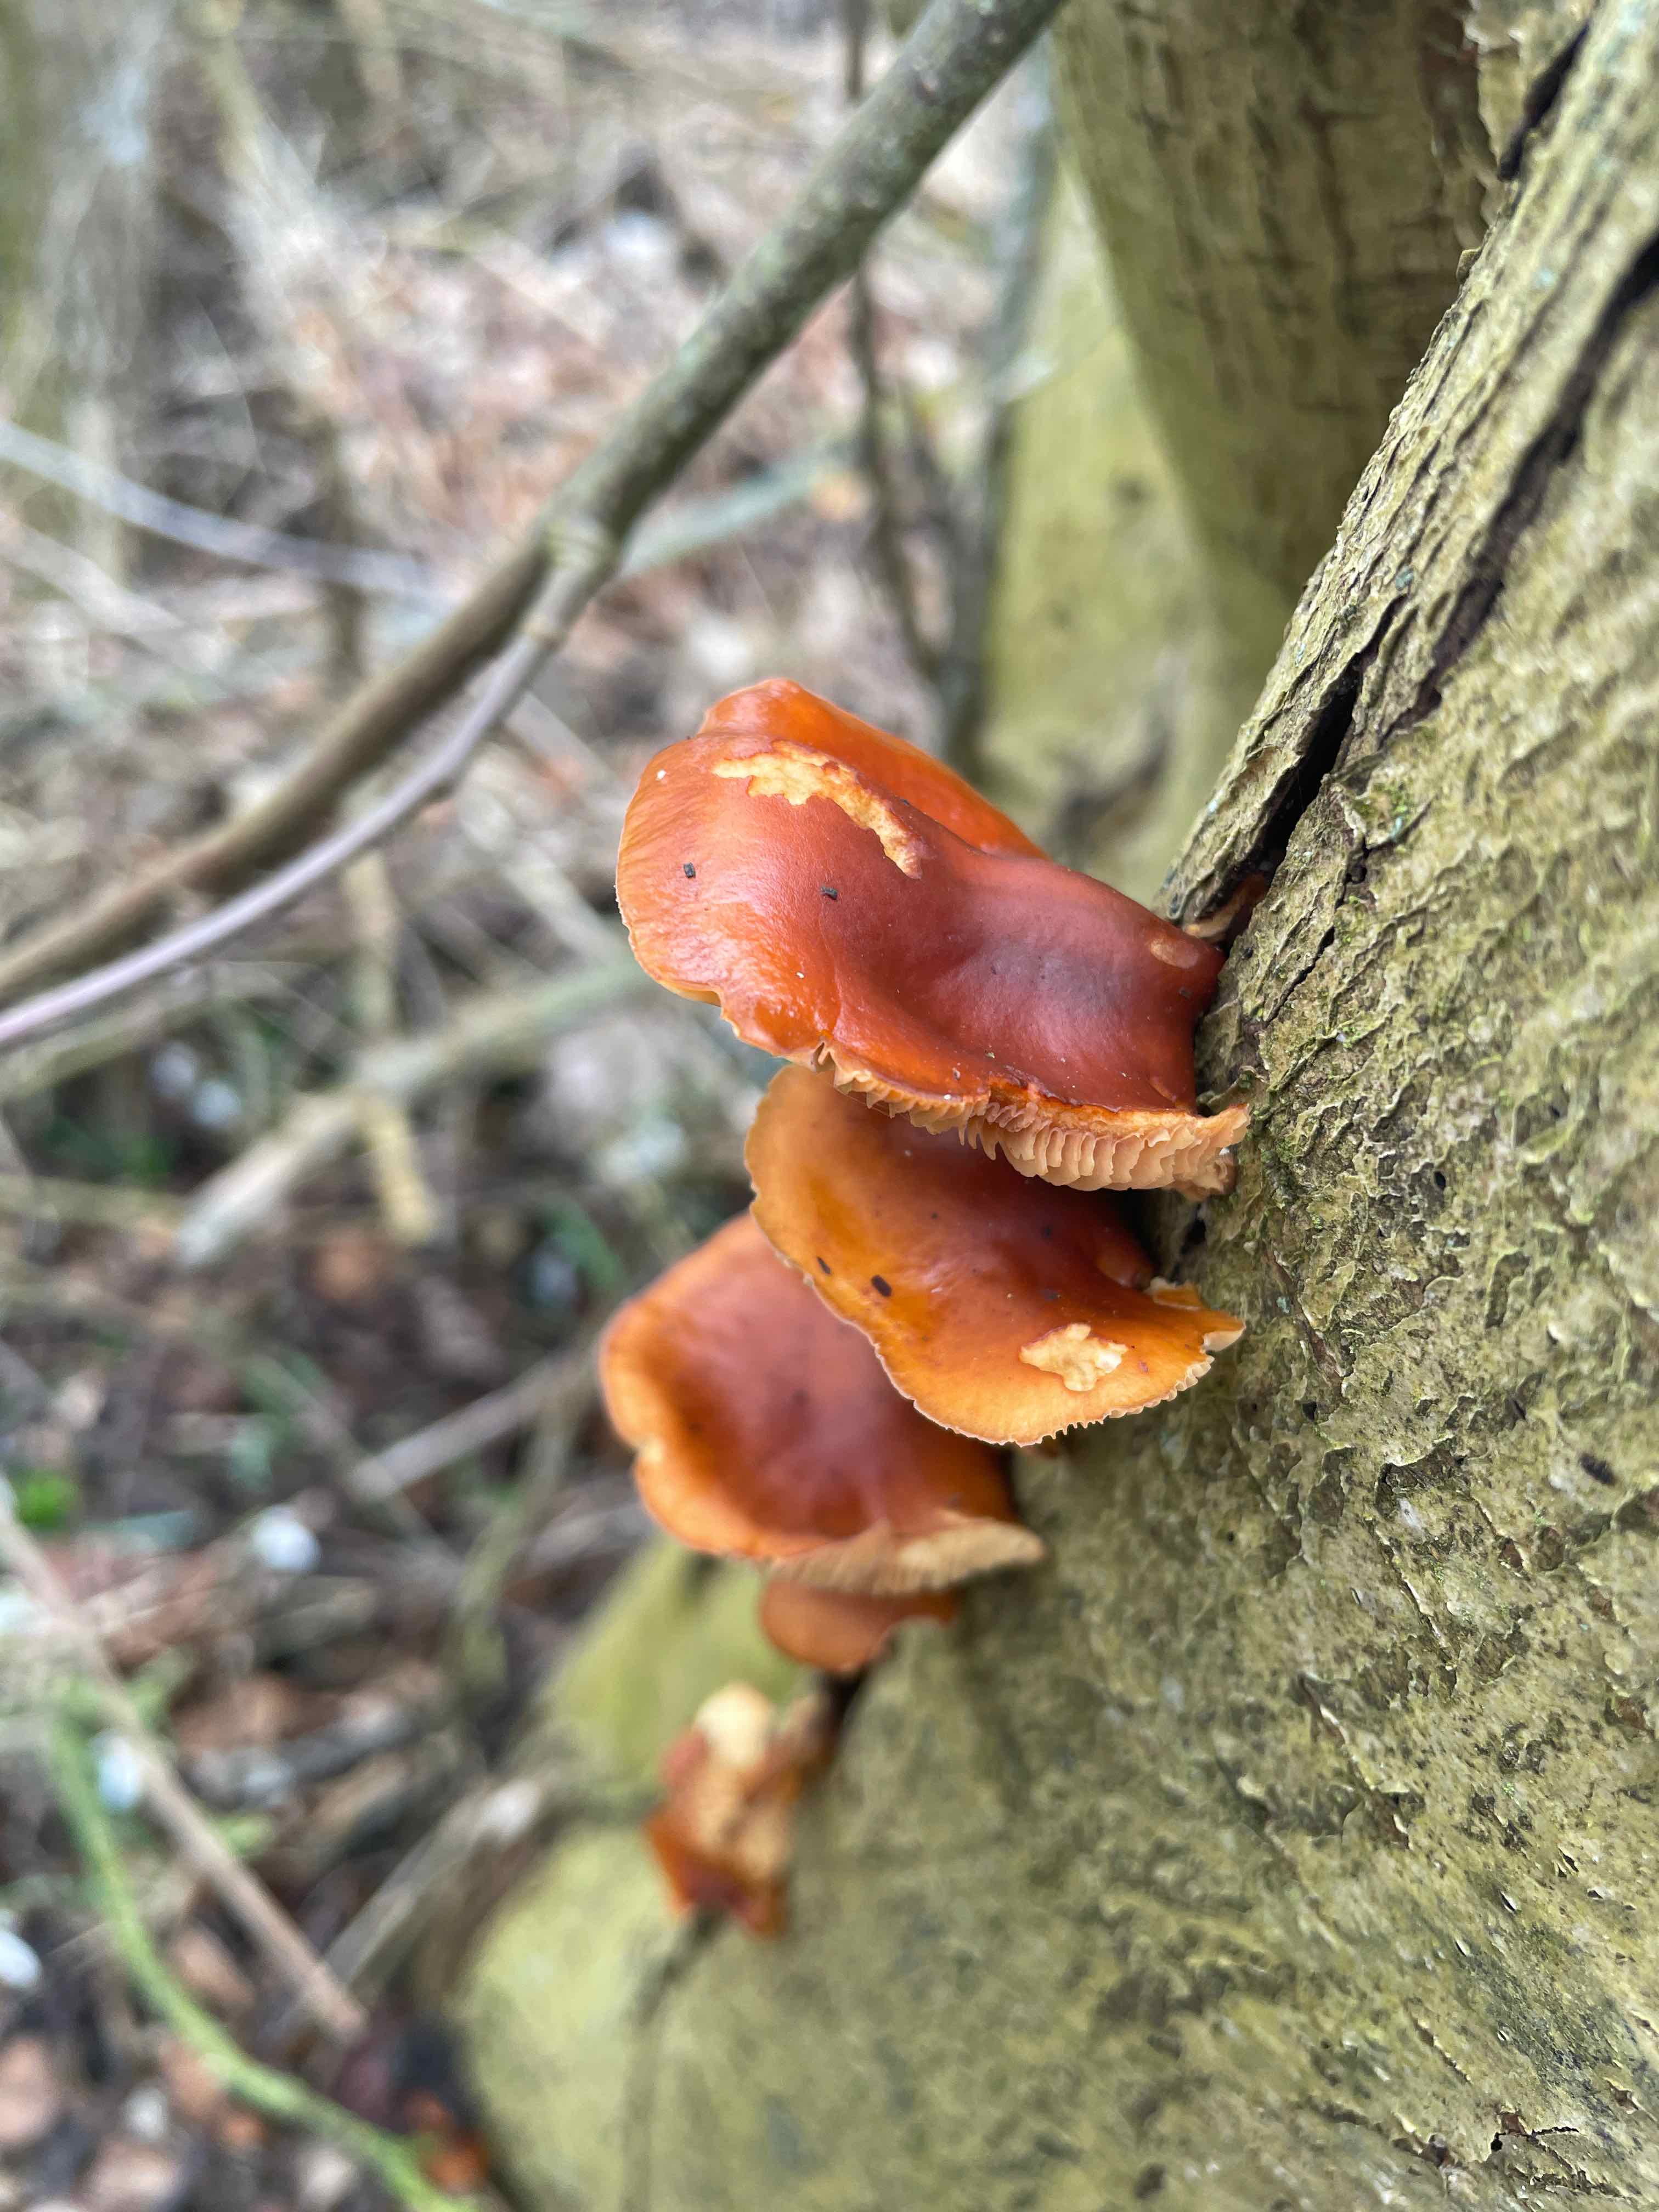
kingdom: Fungi
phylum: Basidiomycota
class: Agaricomycetes
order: Agaricales
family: Physalacriaceae
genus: Flammulina
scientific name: Flammulina velutipes
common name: gul fløjlsfod
